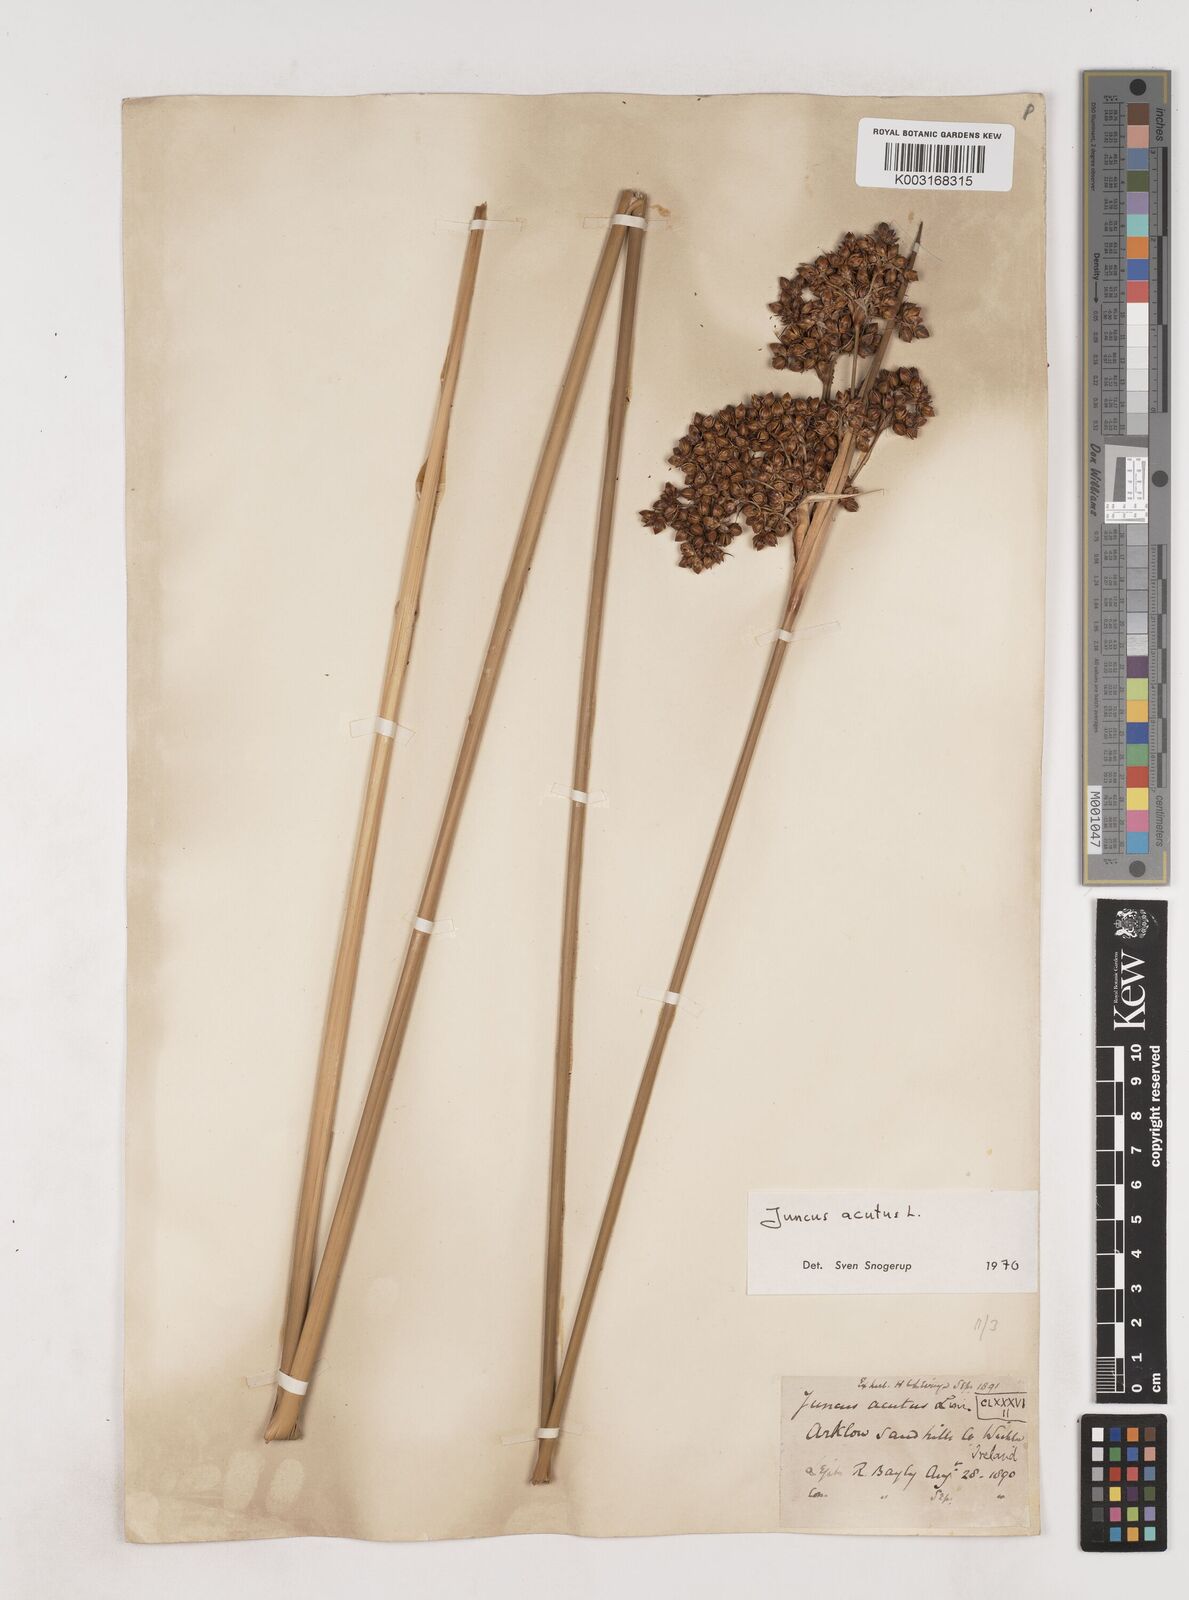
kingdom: Plantae
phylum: Tracheophyta
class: Liliopsida
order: Poales
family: Juncaceae
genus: Juncus
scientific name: Juncus acutus
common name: Sharp rush
